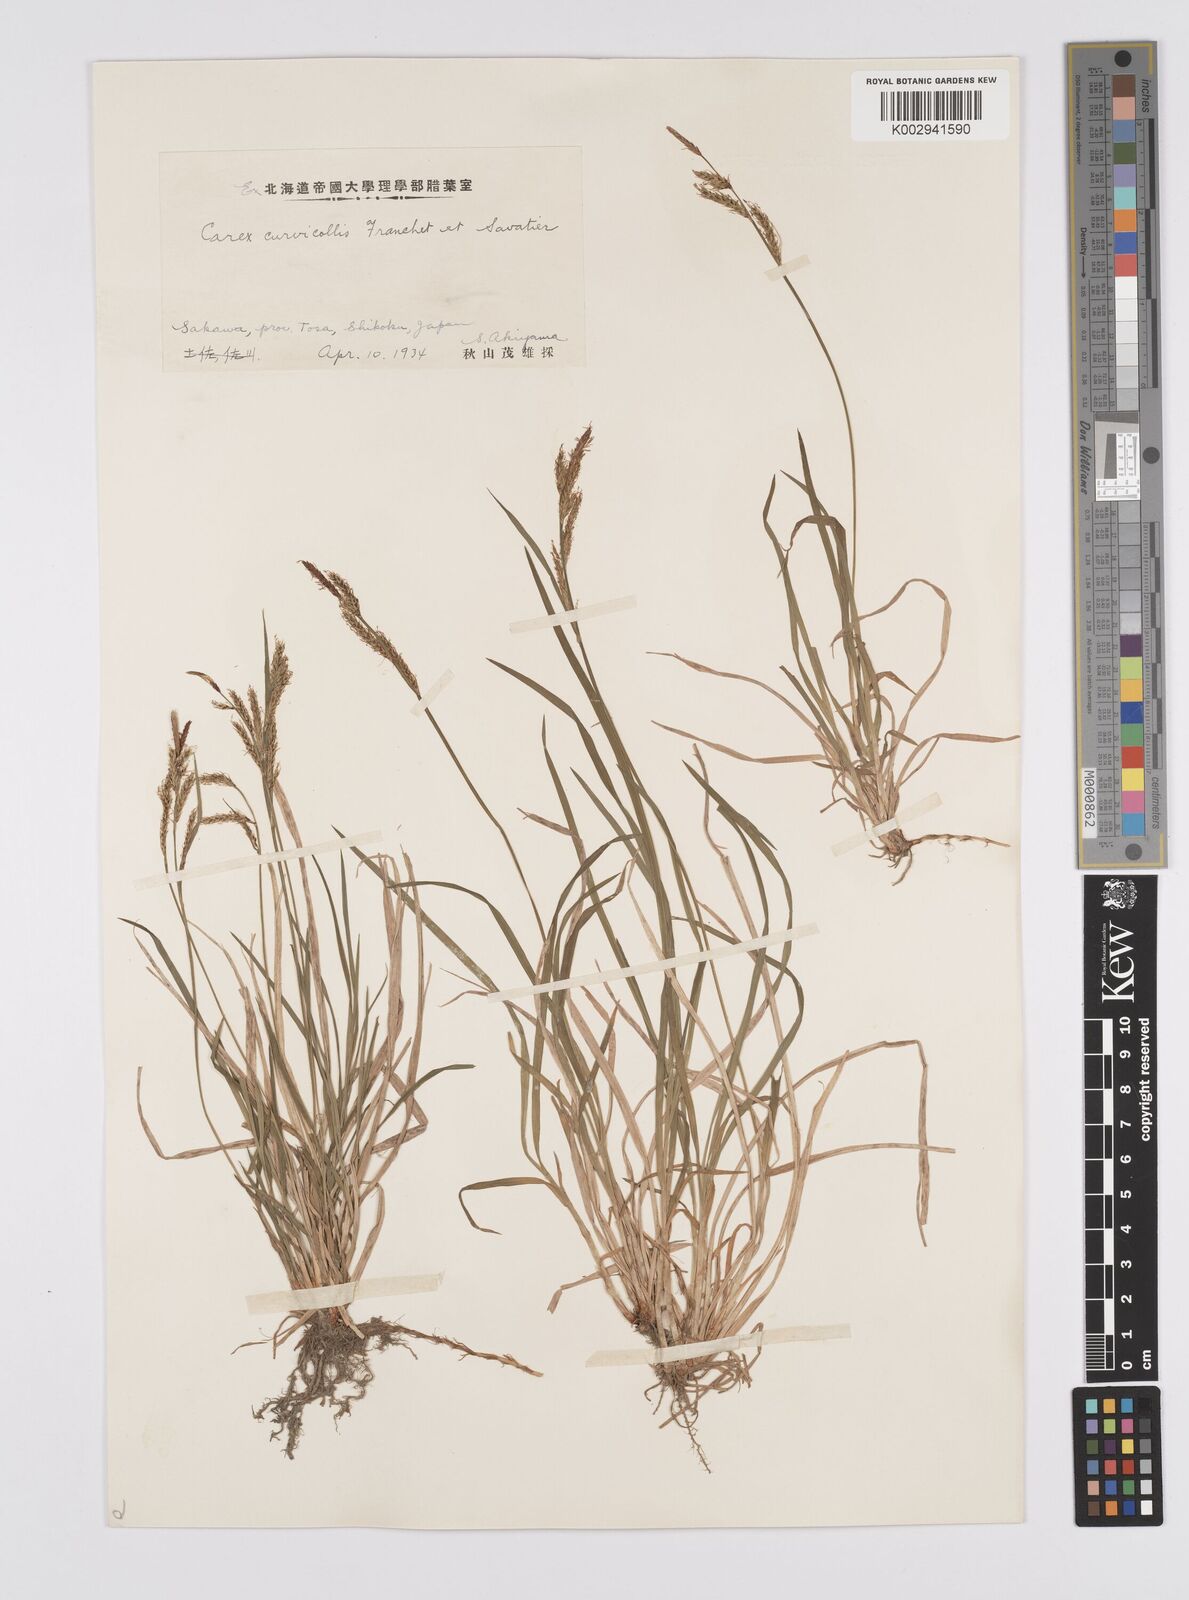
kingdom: Plantae
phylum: Tracheophyta
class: Liliopsida
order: Poales
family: Cyperaceae
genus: Carex
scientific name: Carex curvicollis
